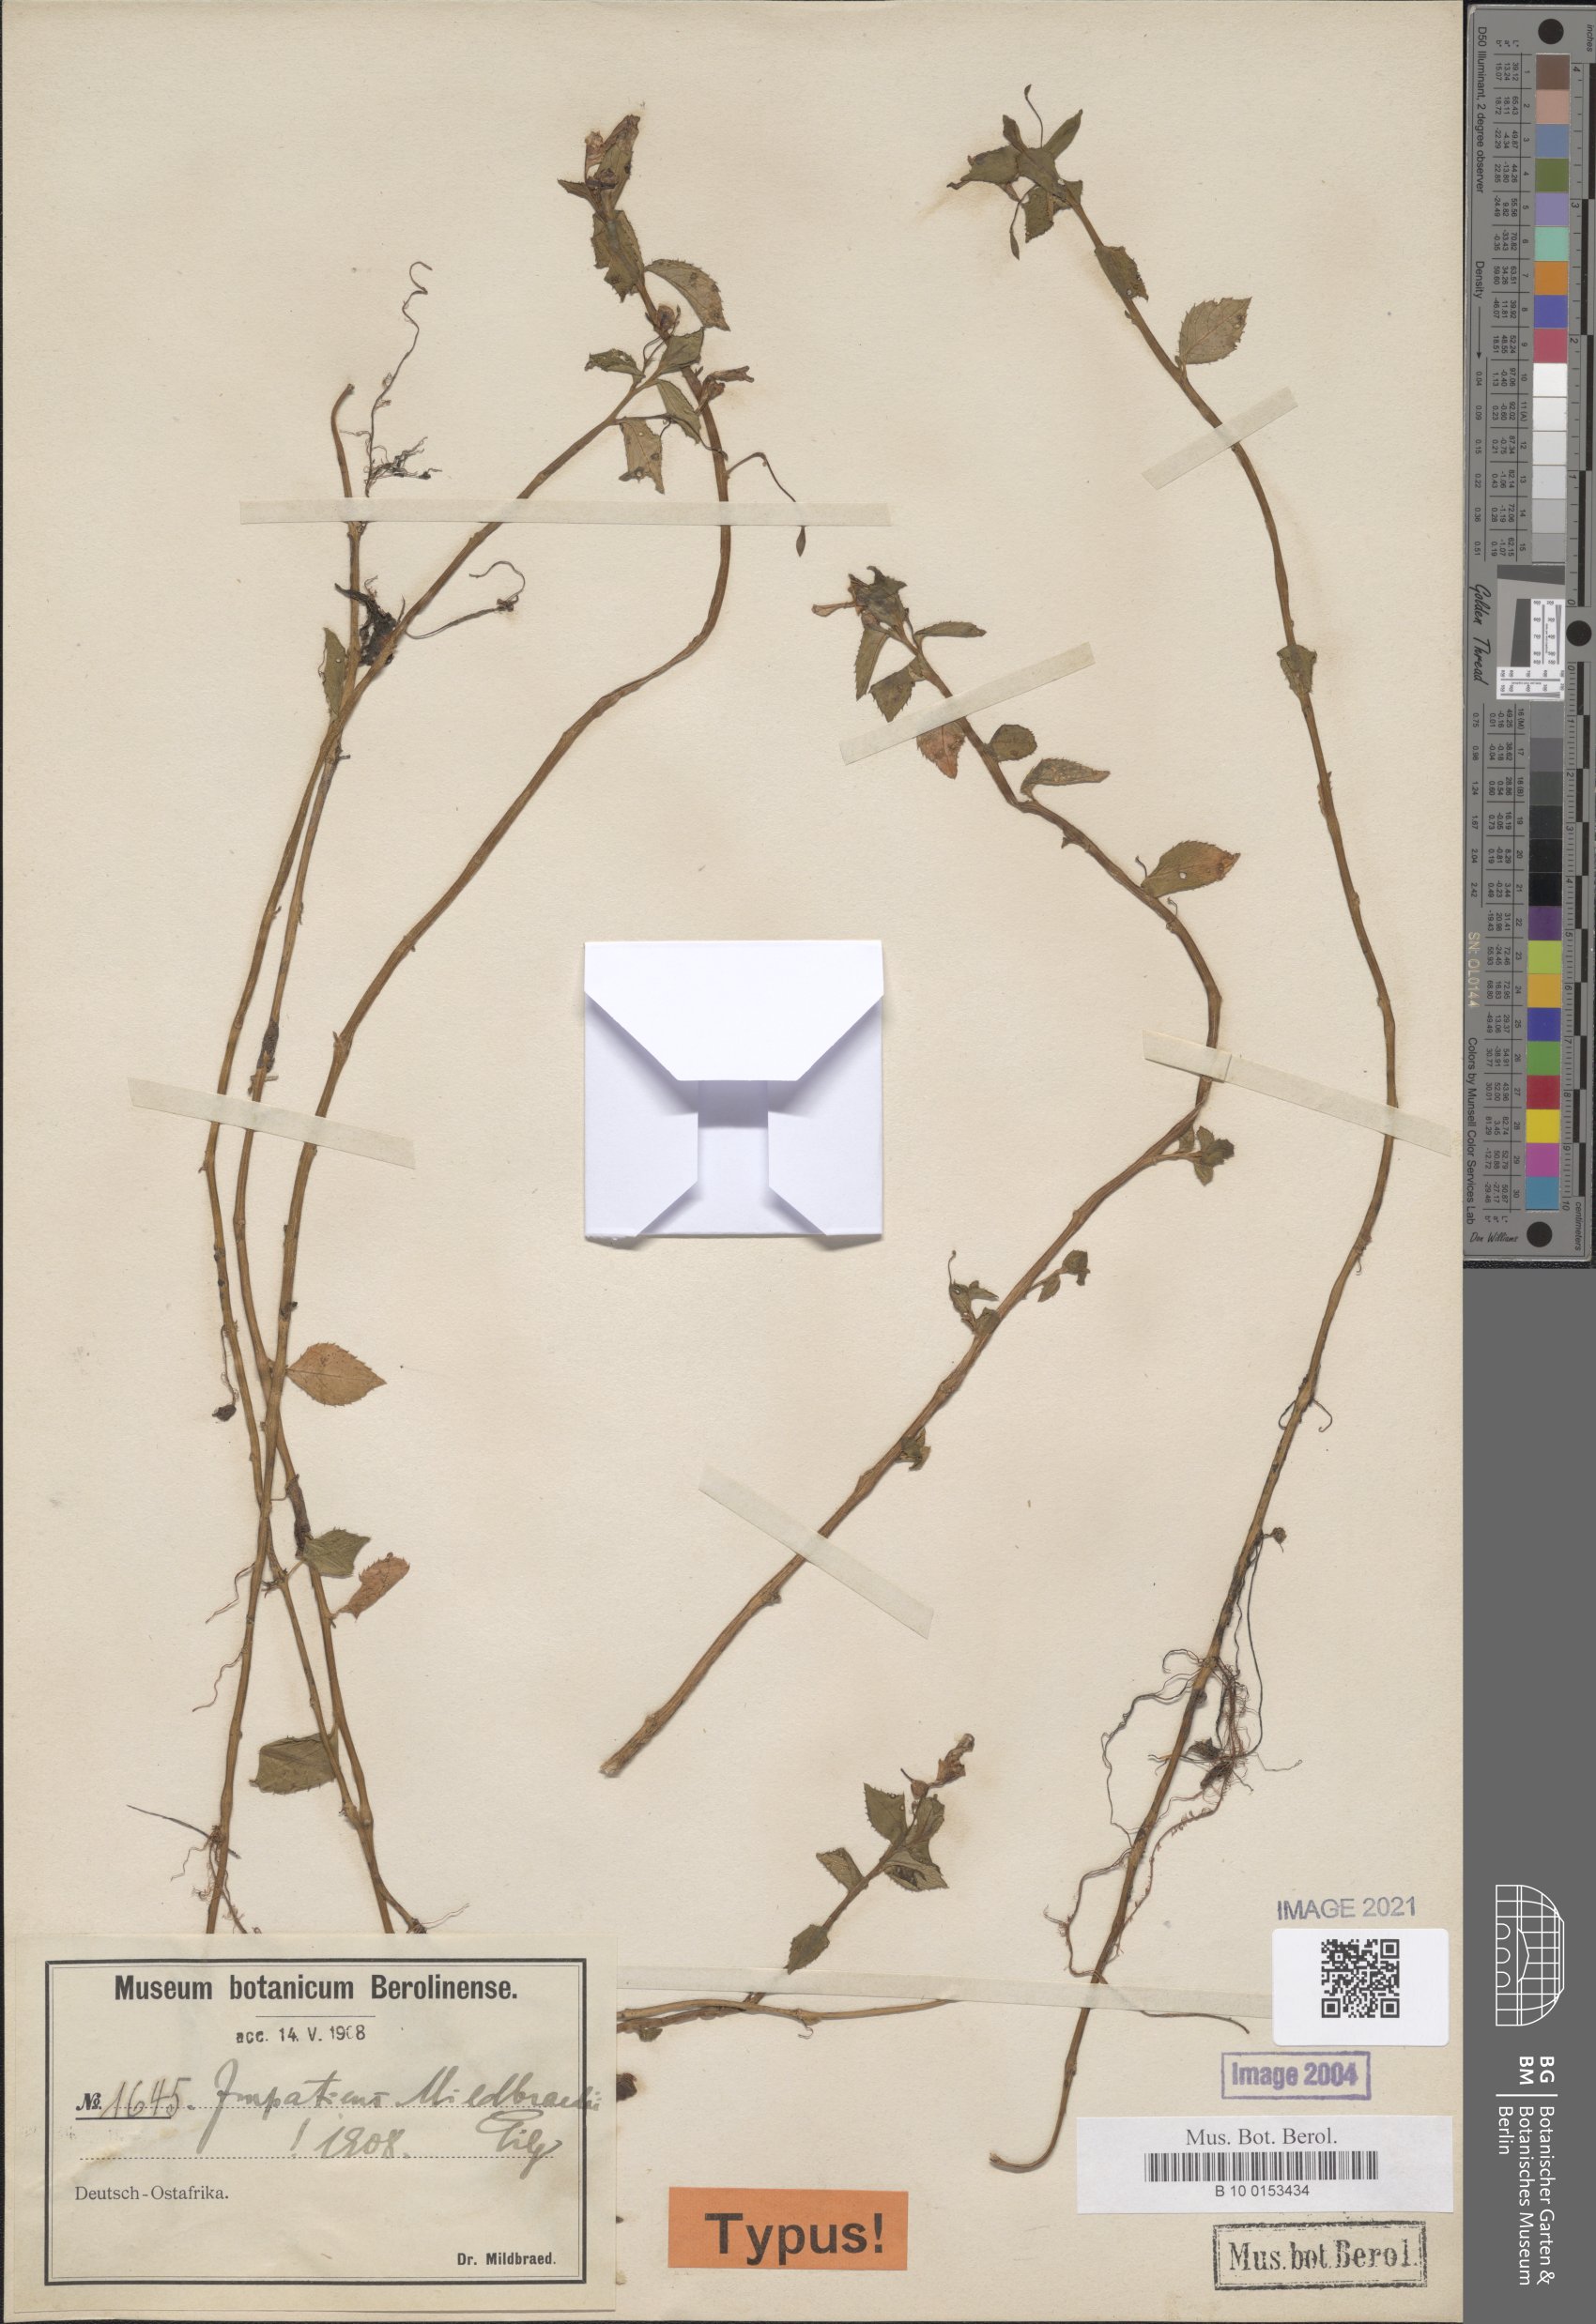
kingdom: Plantae
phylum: Tracheophyta
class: Magnoliopsida
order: Ericales
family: Balsaminaceae
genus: Impatiens
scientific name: Impatiens mildbraedii
